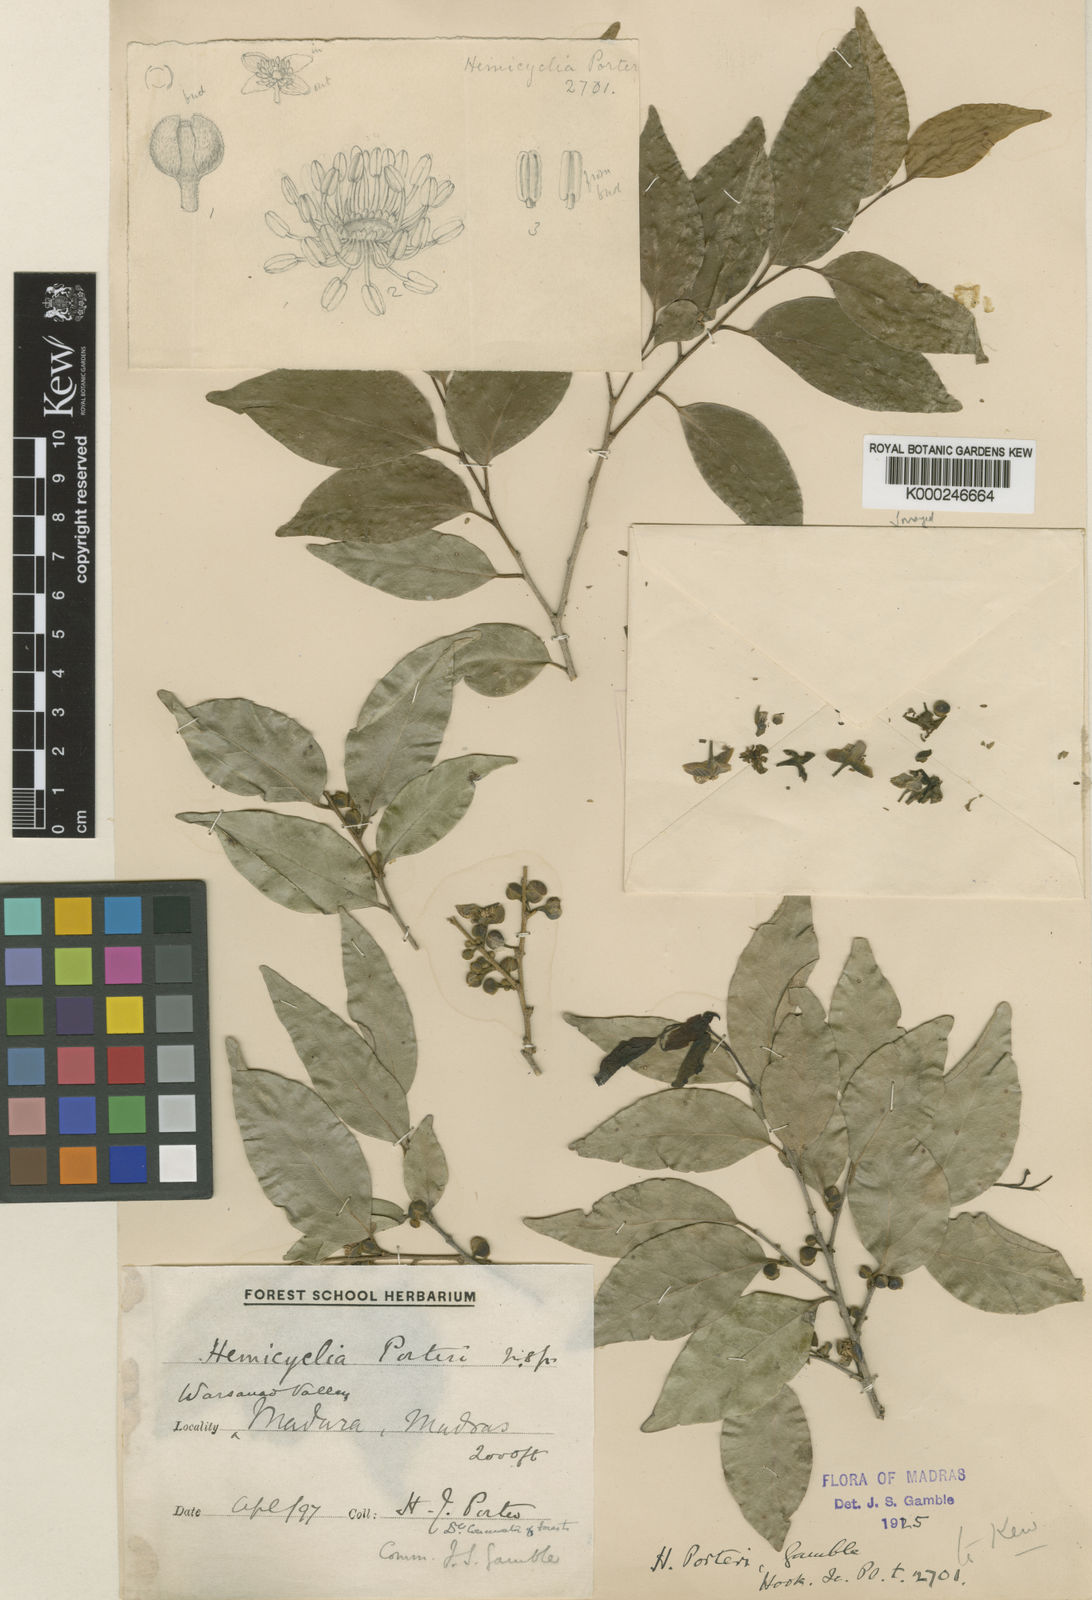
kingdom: Plantae
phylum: Tracheophyta
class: Magnoliopsida
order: Malpighiales
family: Putranjivaceae
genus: Drypetes
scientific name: Drypetes porteri
